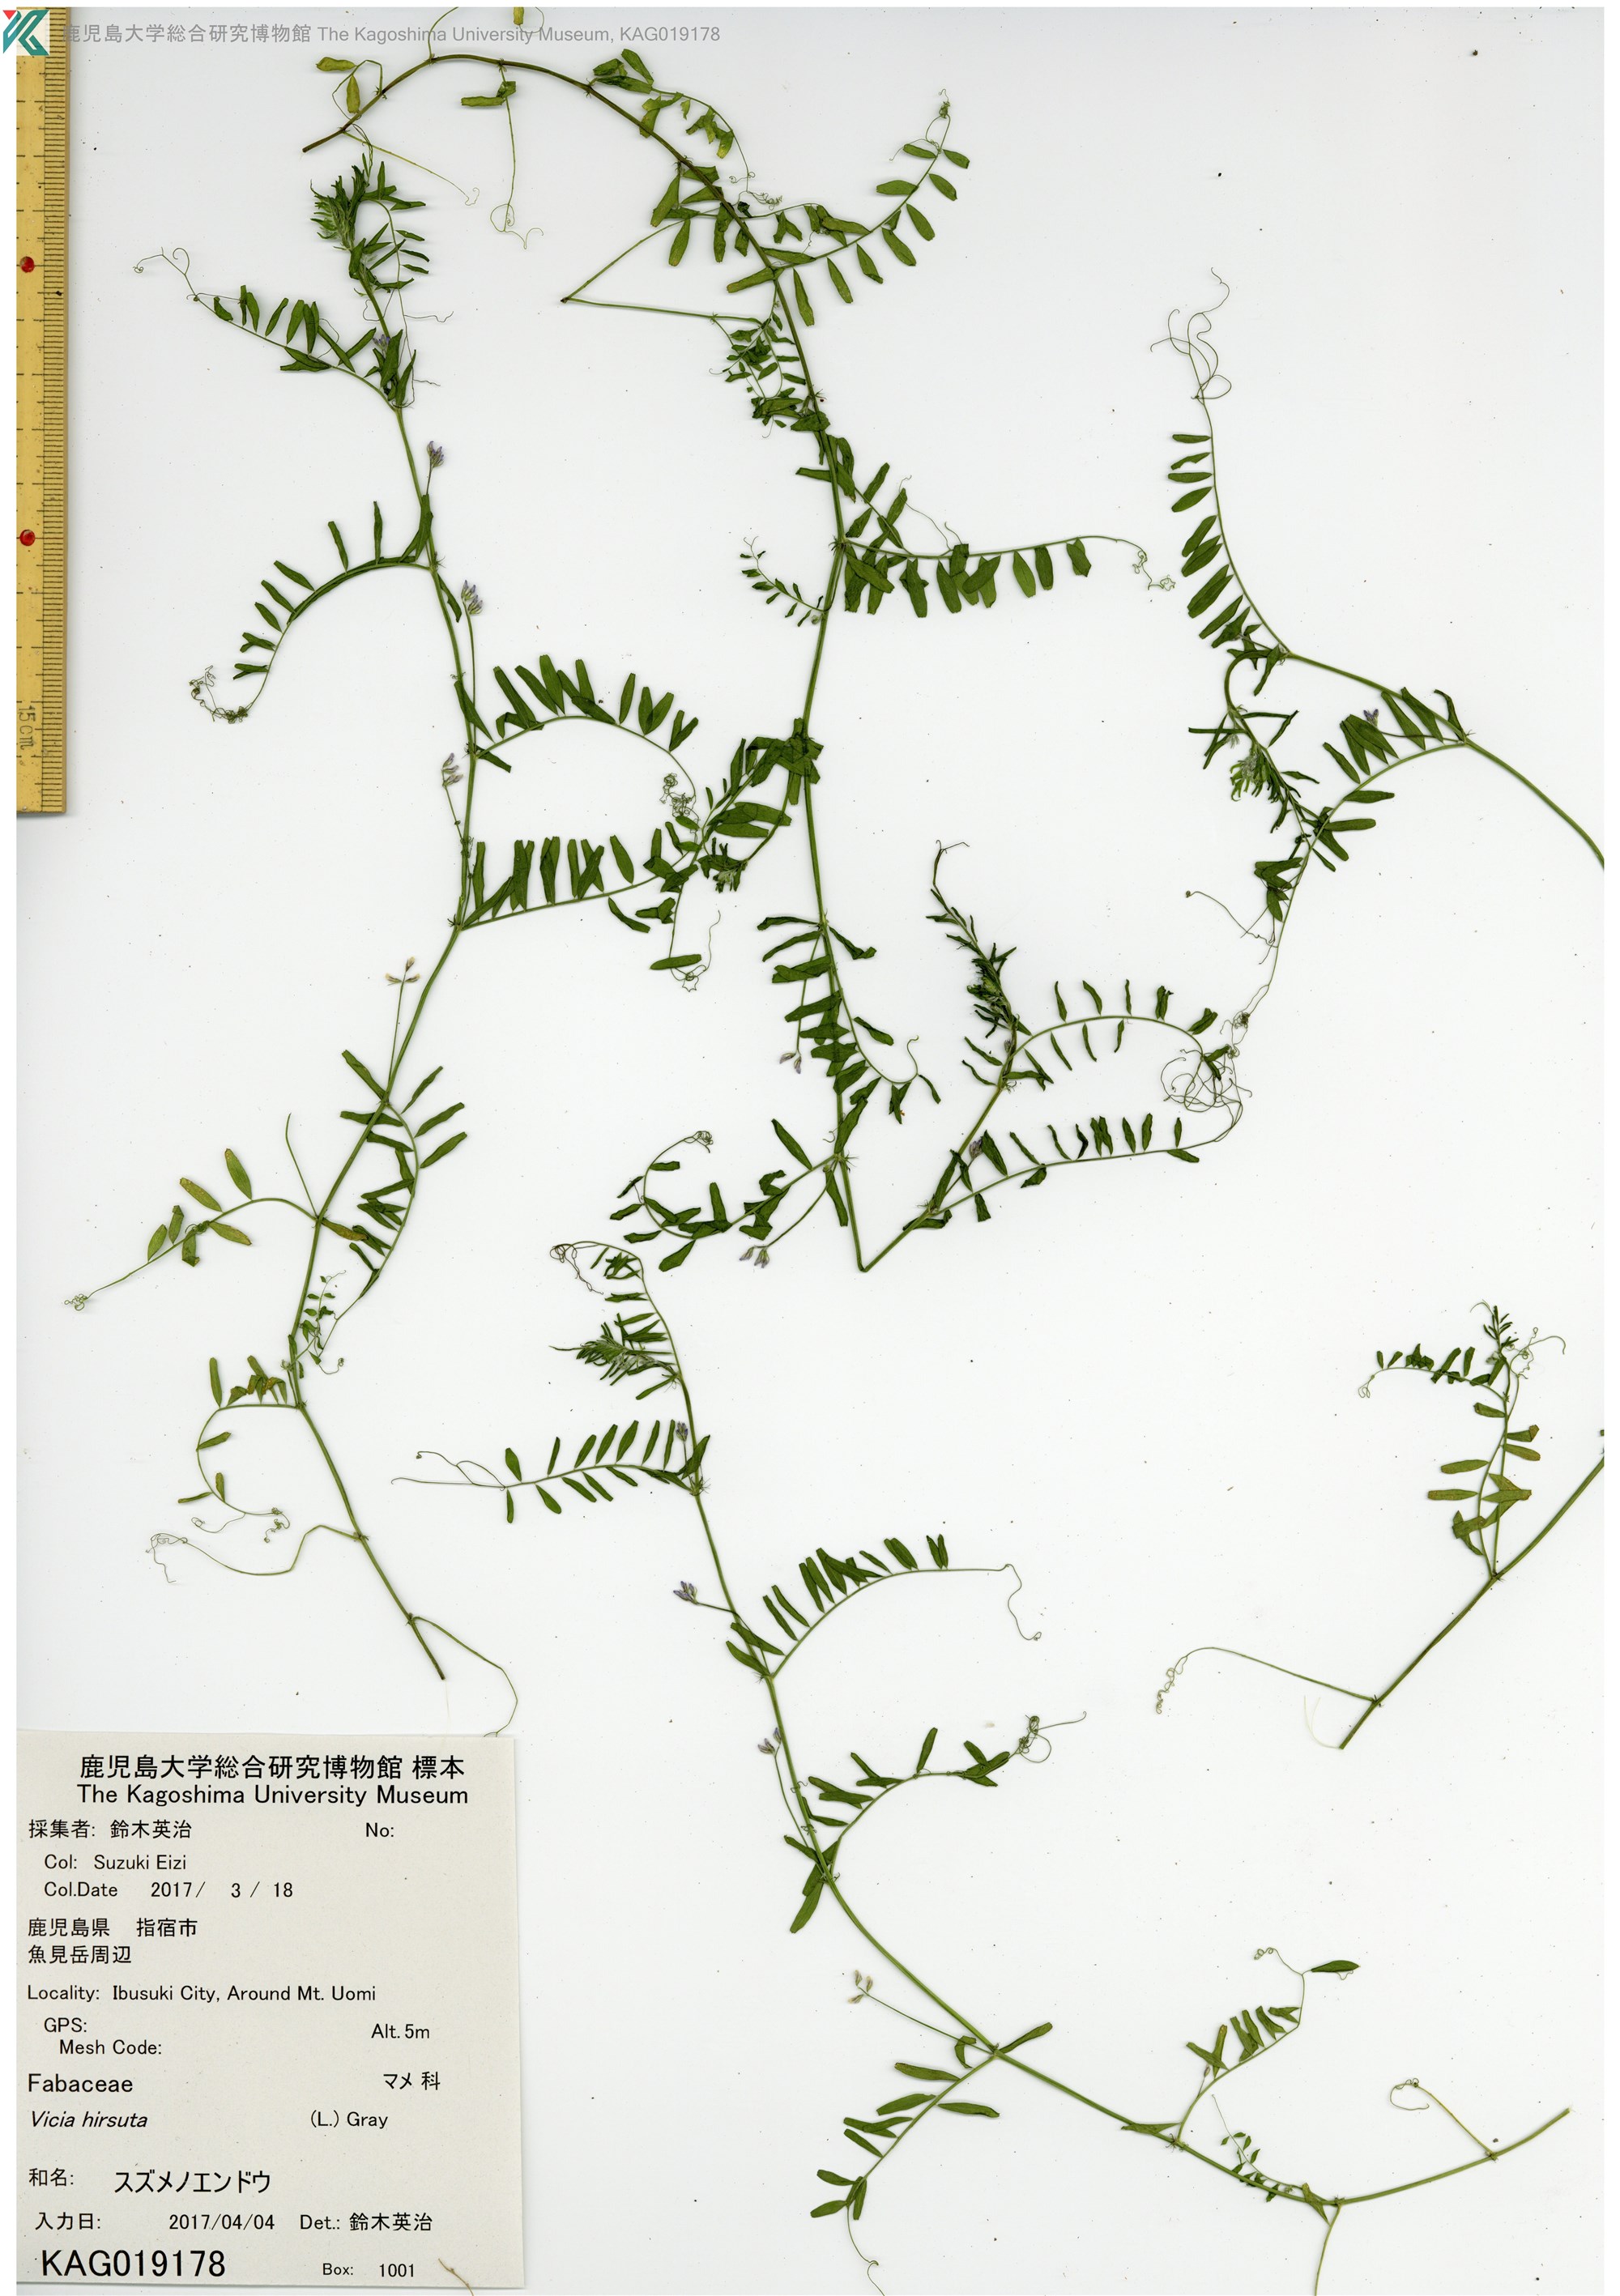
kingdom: Plantae
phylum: Tracheophyta
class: Magnoliopsida
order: Fabales
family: Fabaceae
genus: Vicia
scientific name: Vicia hirsuta
